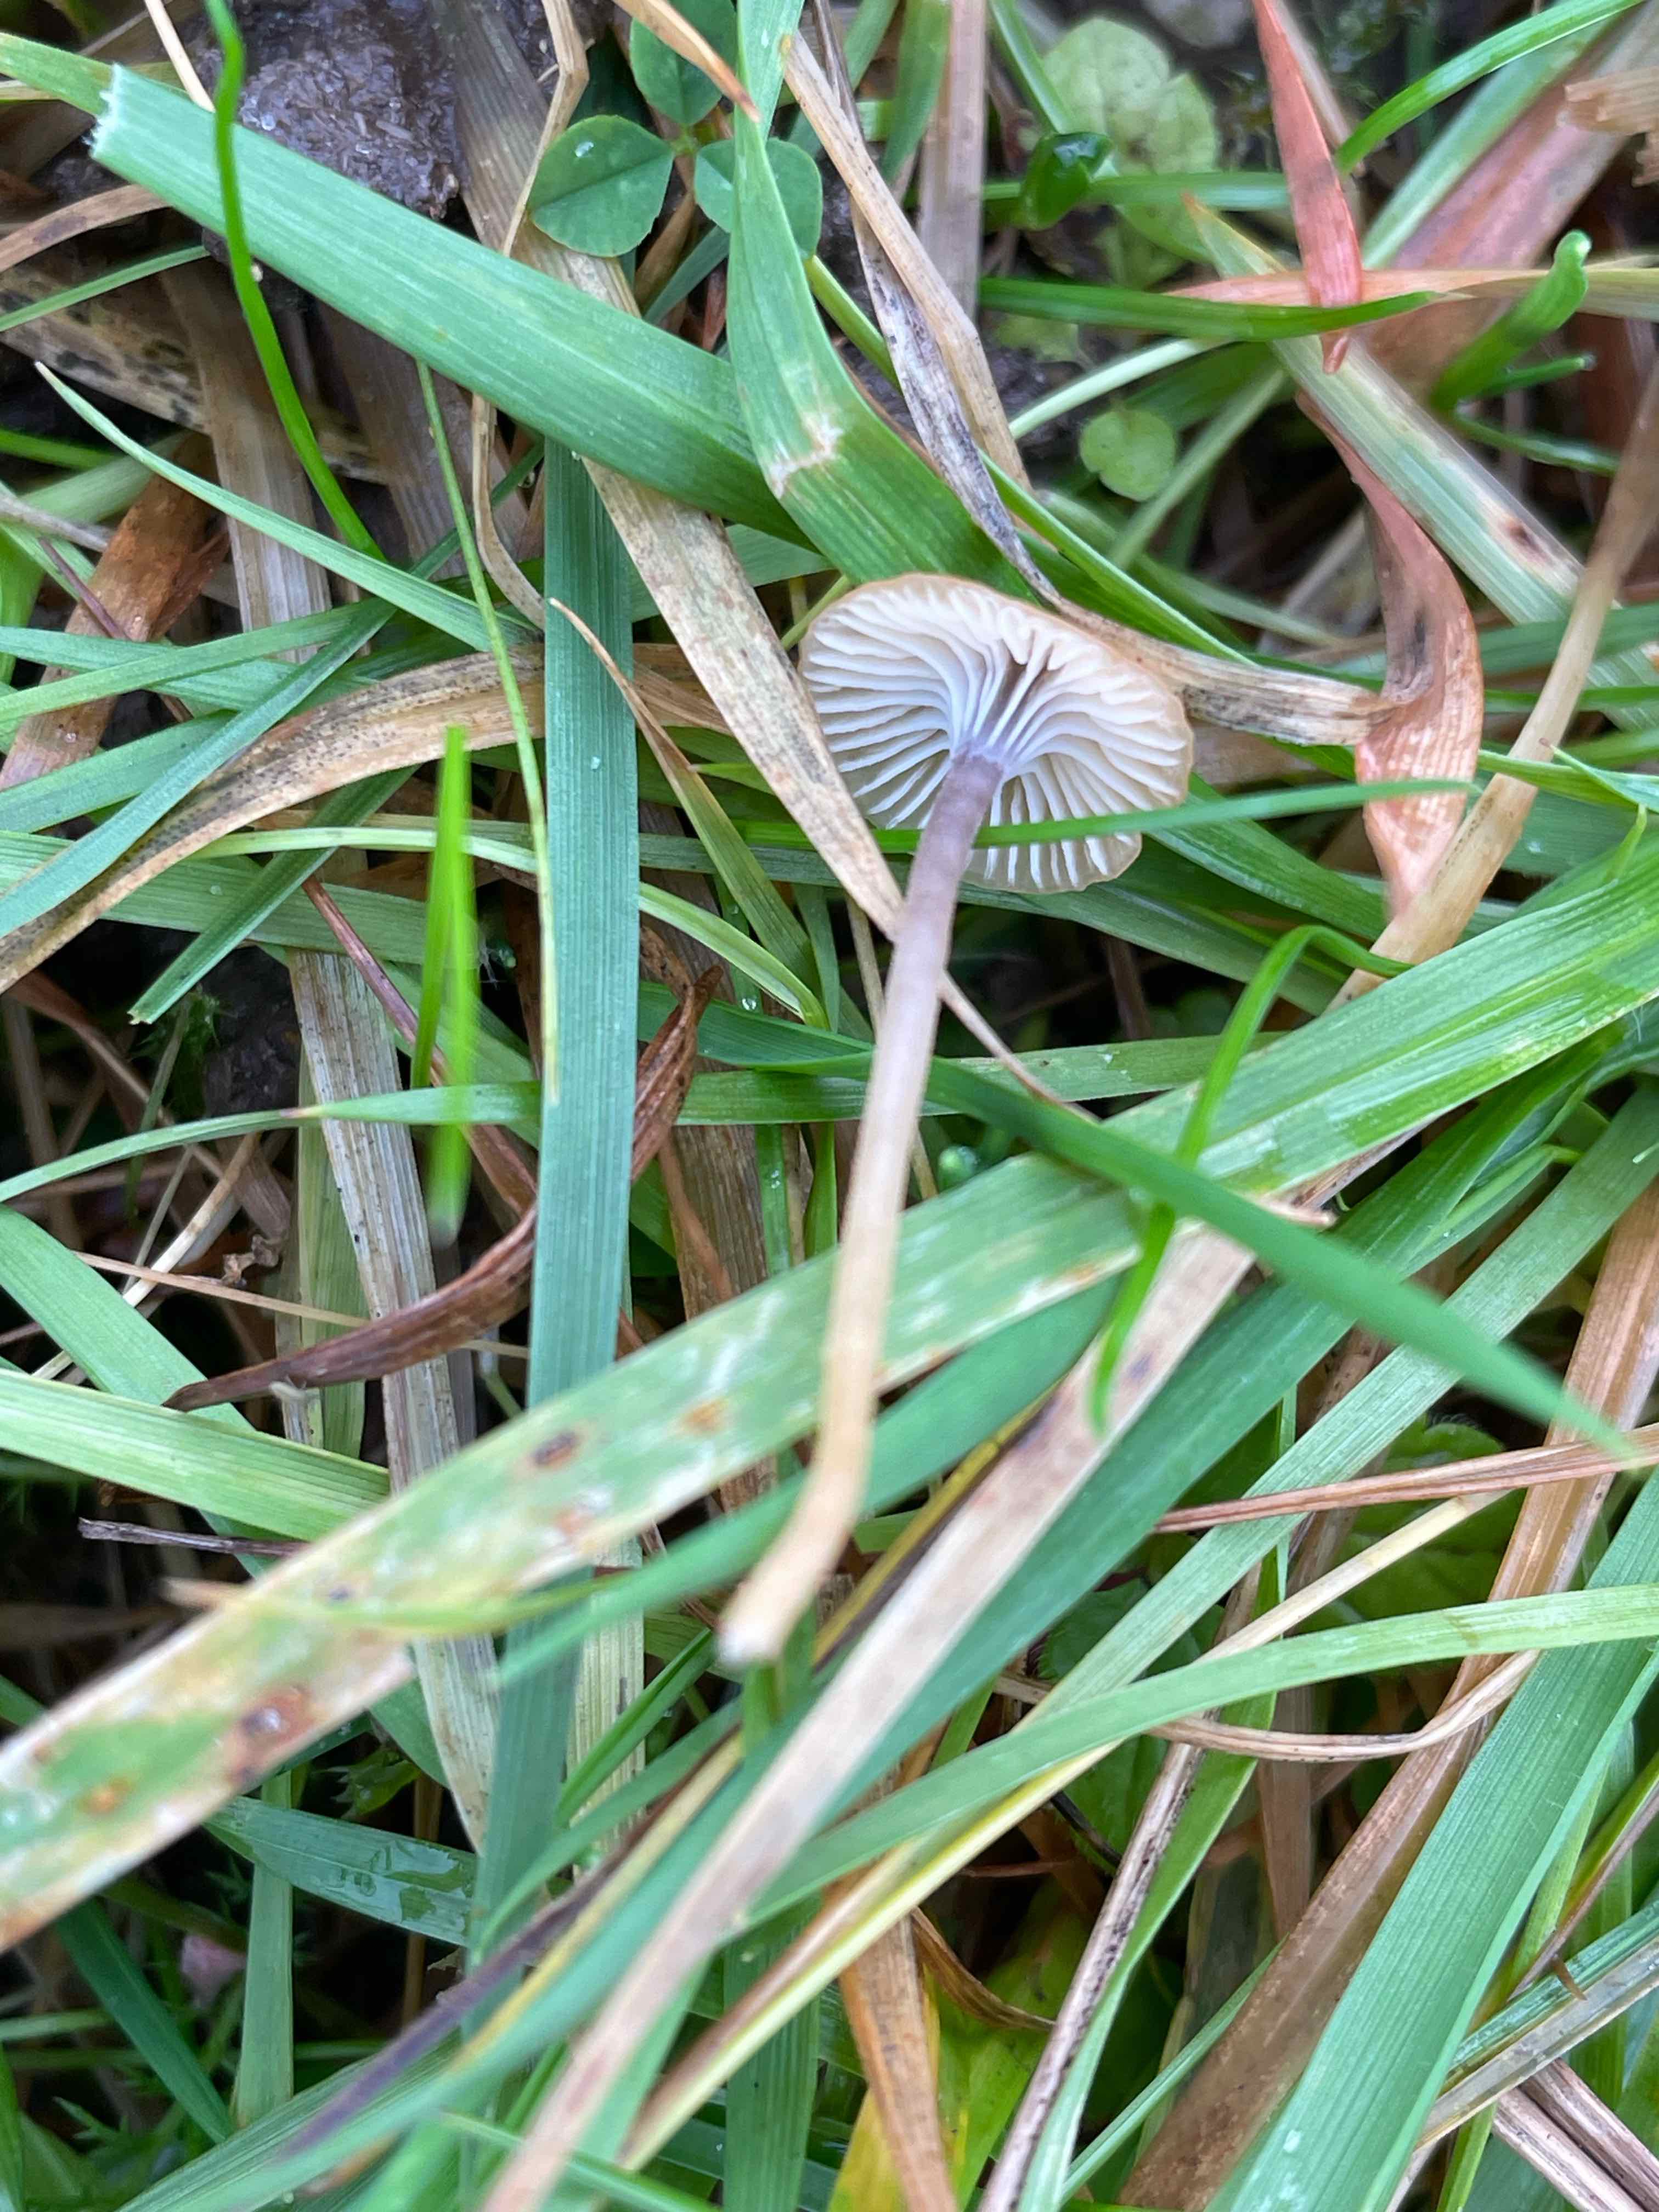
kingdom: Fungi
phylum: Basidiomycota
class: Agaricomycetes
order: Hymenochaetales
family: Rickenellaceae
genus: Rickenella
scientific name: Rickenella swartzii
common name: finstokket mosnavlehat
